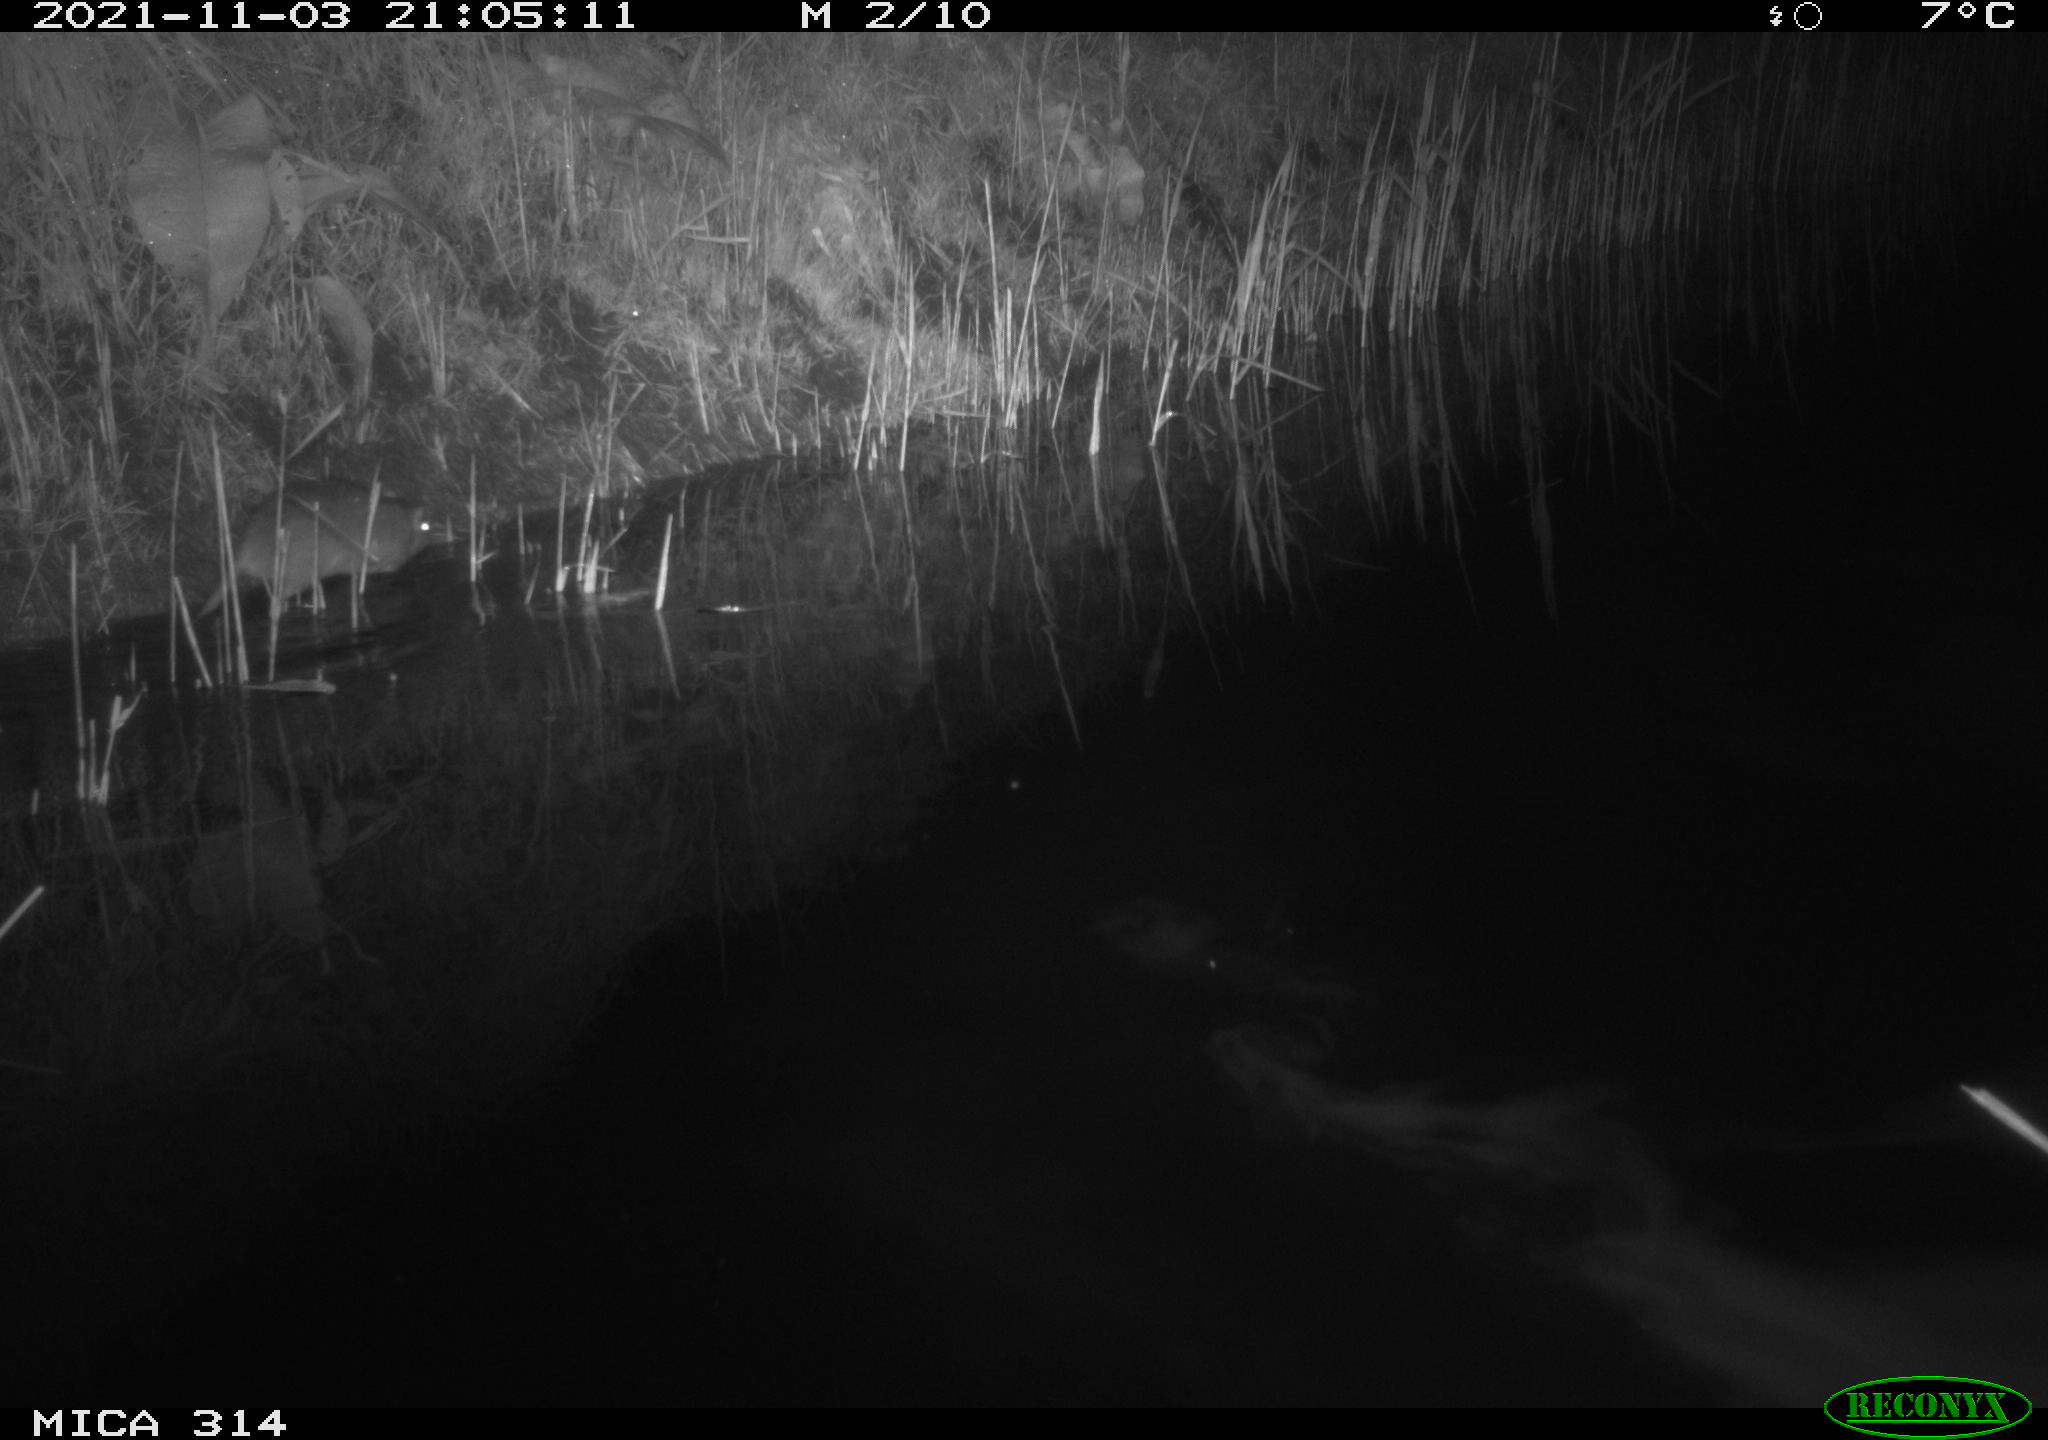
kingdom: Animalia
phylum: Chordata
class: Mammalia
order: Rodentia
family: Muridae
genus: Rattus
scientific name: Rattus norvegicus
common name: Brown rat
